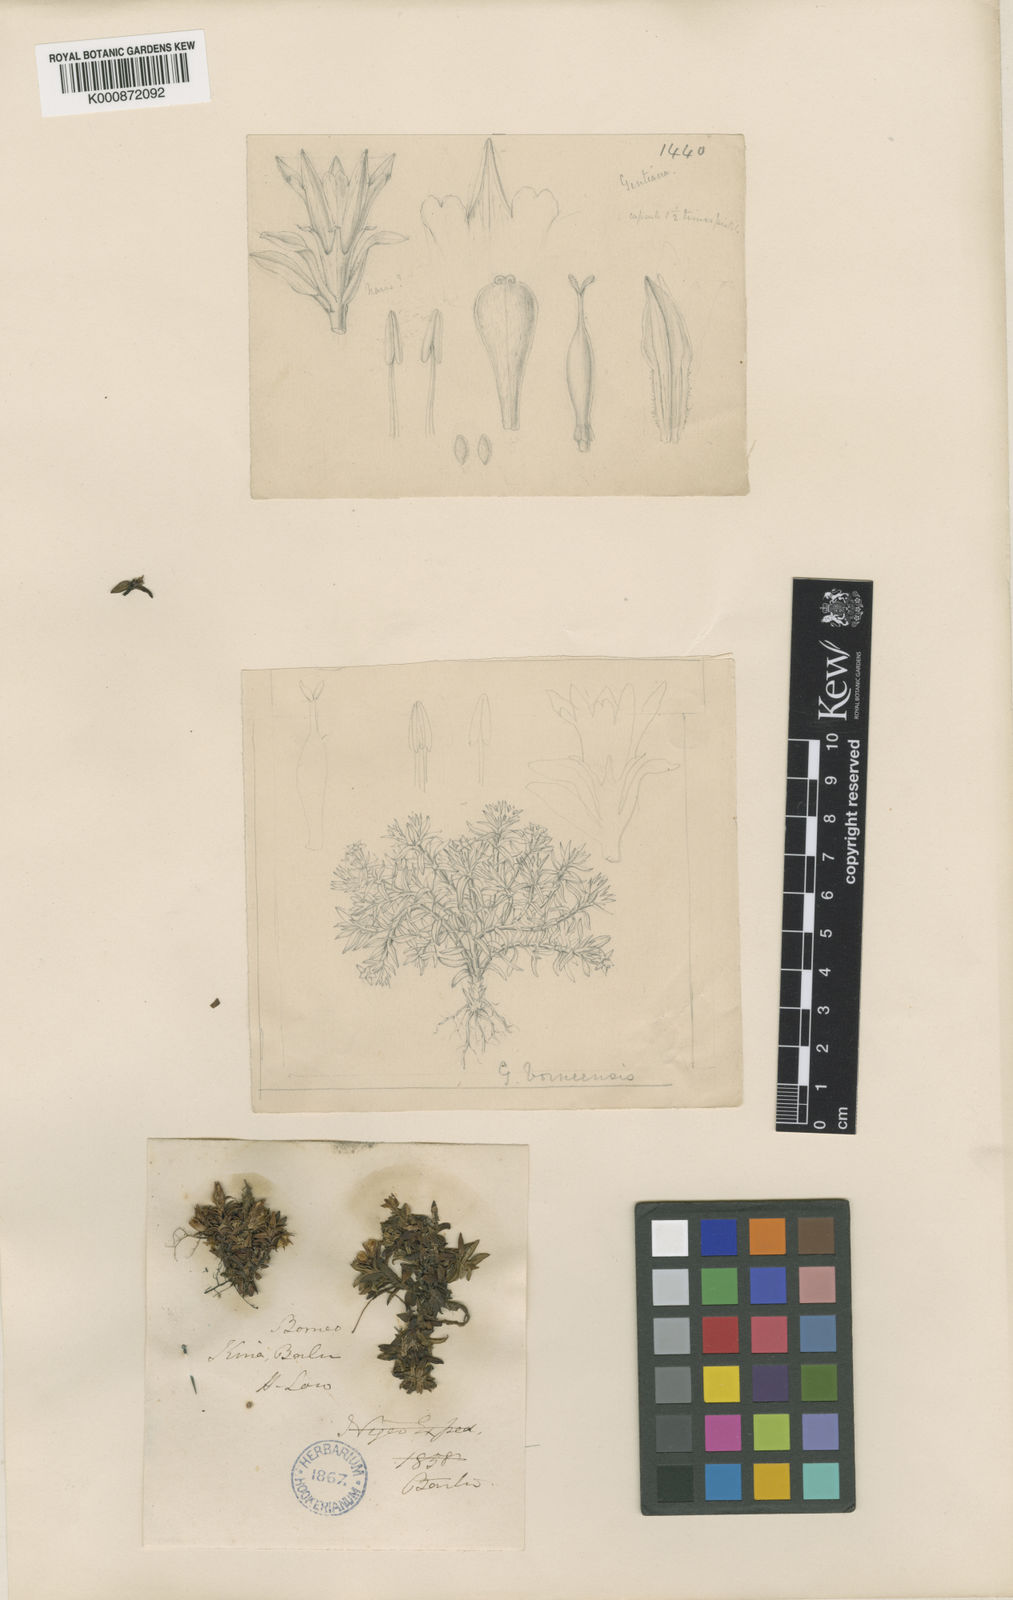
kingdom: Plantae
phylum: Tracheophyta
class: Magnoliopsida
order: Gentianales
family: Gentianaceae
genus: Gentiana
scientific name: Gentiana borneensis
